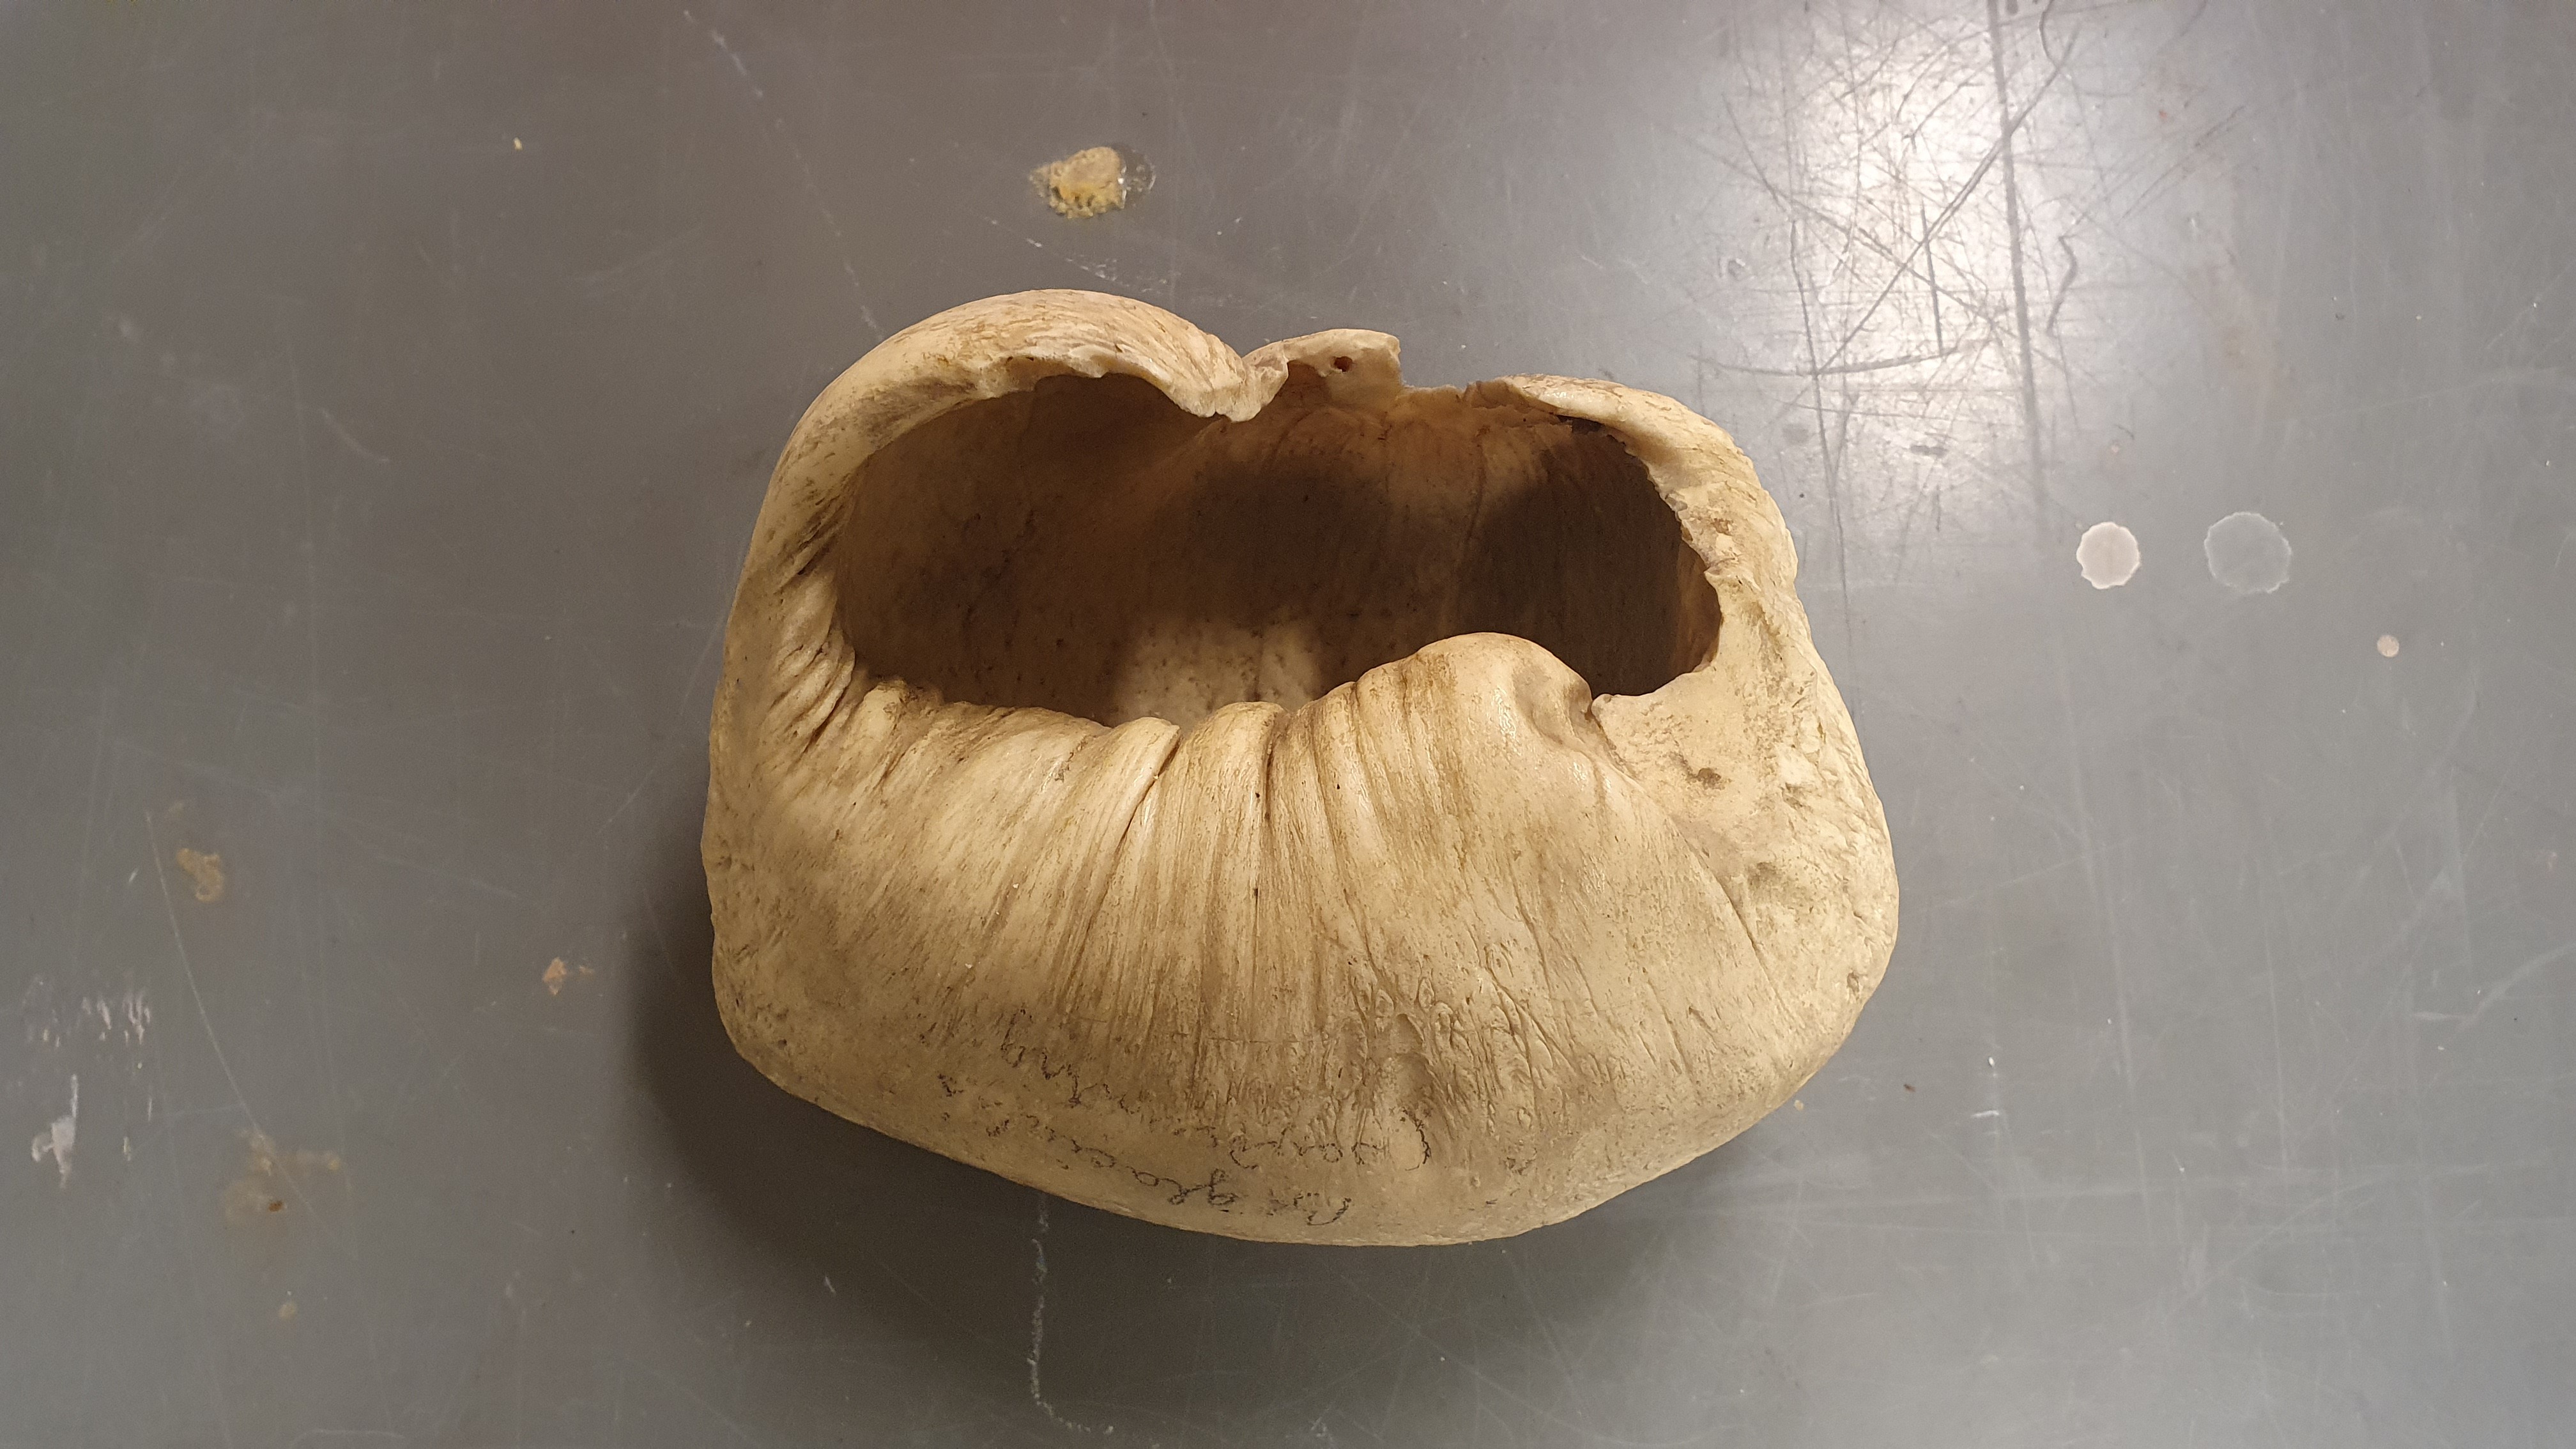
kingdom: Animalia
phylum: Chordata
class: Mammalia
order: Cetacea
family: Balaenidae
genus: Balaena
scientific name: Balaena mysticetus
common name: Bowhead whale
